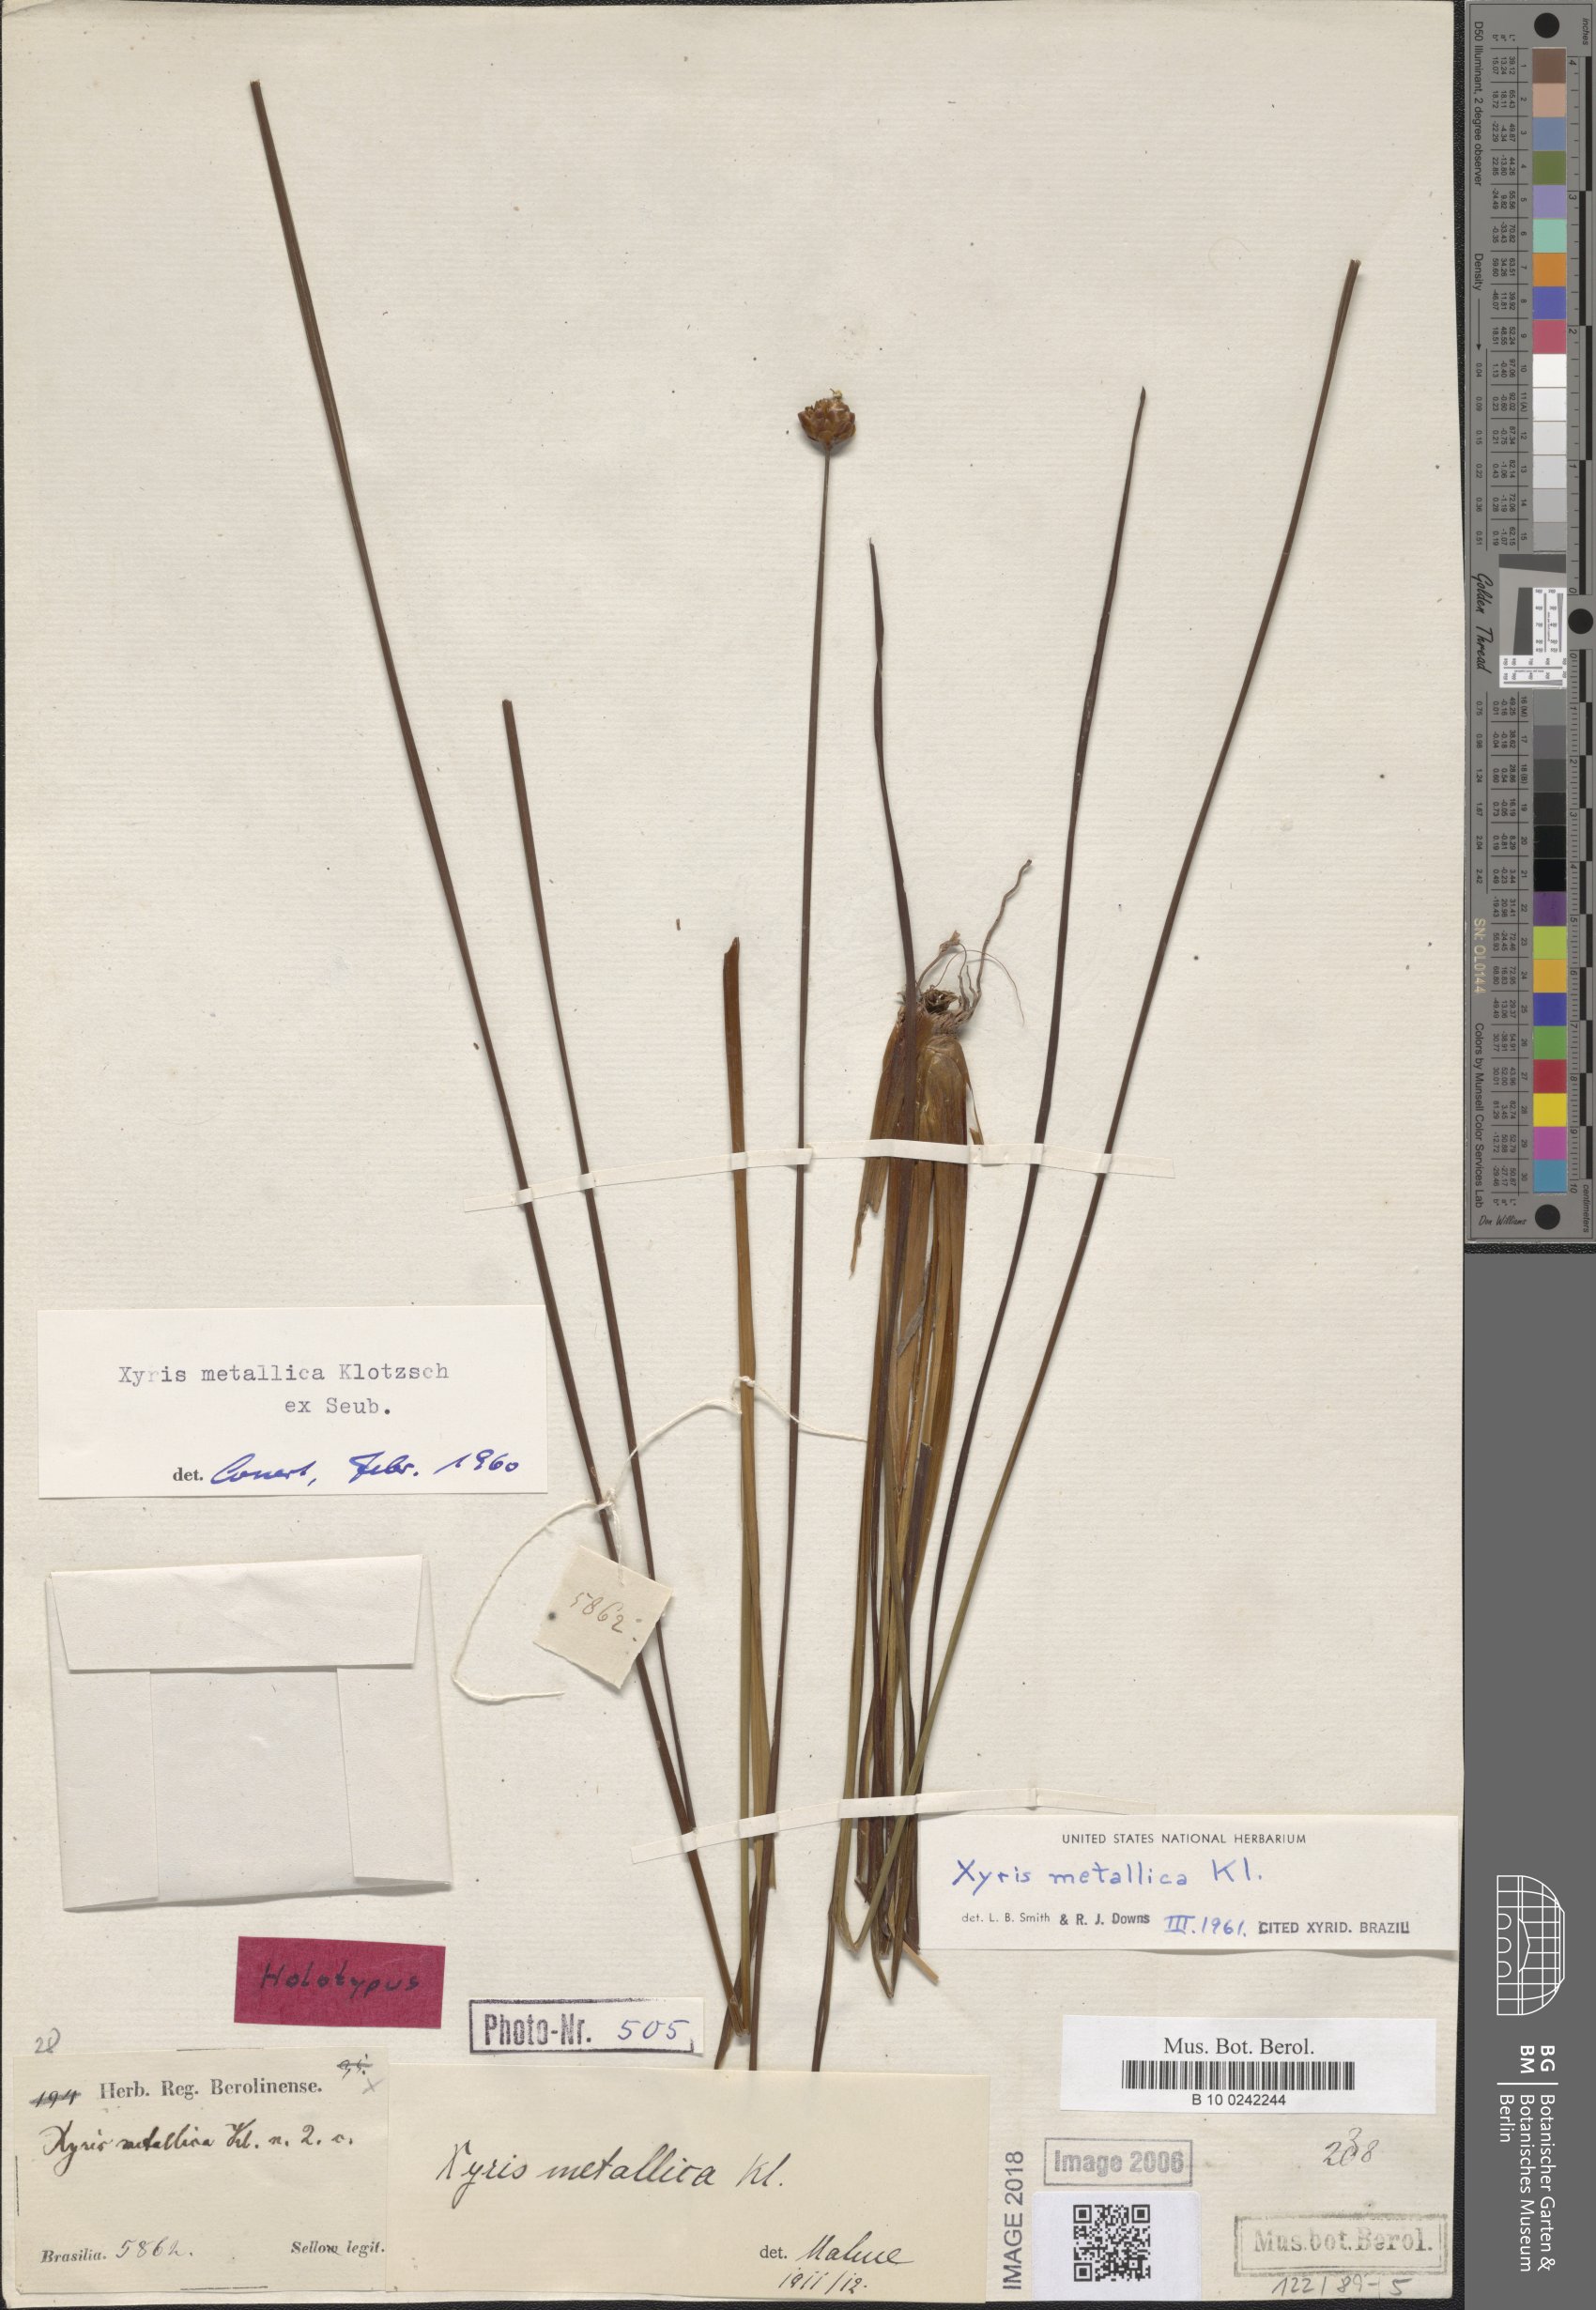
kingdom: Plantae
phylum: Tracheophyta
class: Liliopsida
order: Poales
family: Xyridaceae
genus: Xyris
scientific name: Xyris metallica
